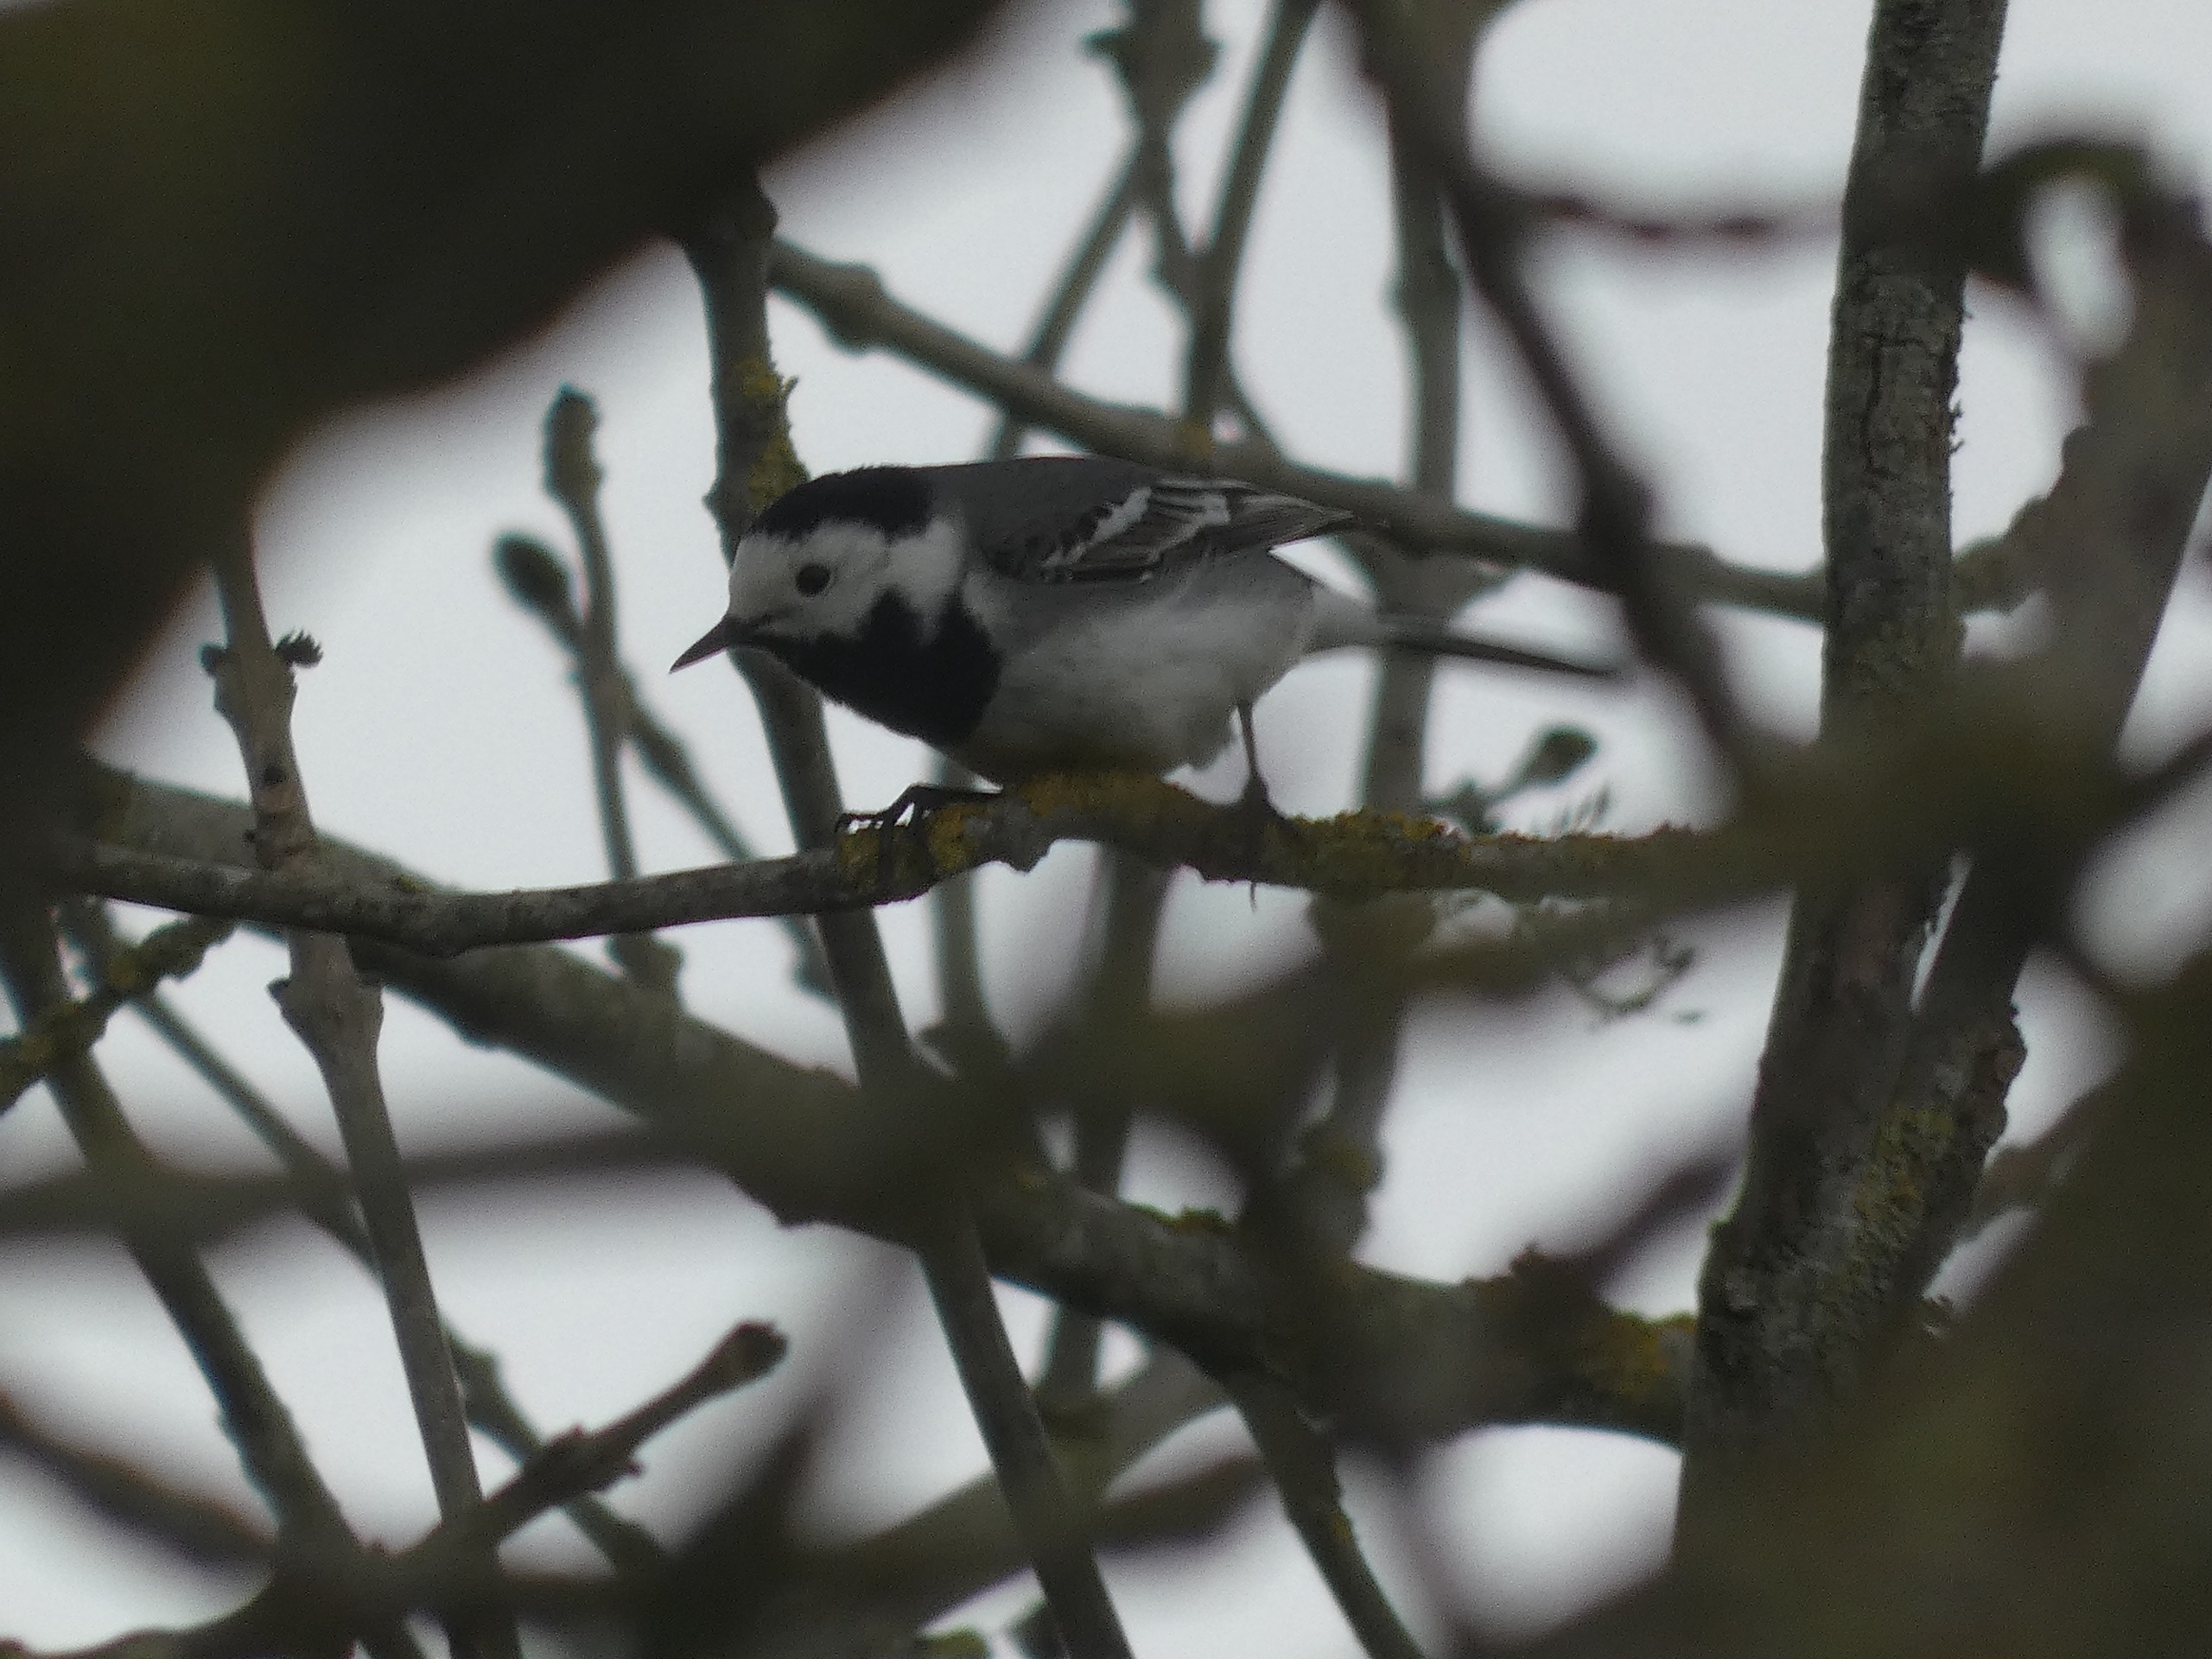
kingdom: Animalia
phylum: Chordata
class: Aves
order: Passeriformes
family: Motacillidae
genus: Motacilla
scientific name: Motacilla alba
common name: Hvid vipstjert
